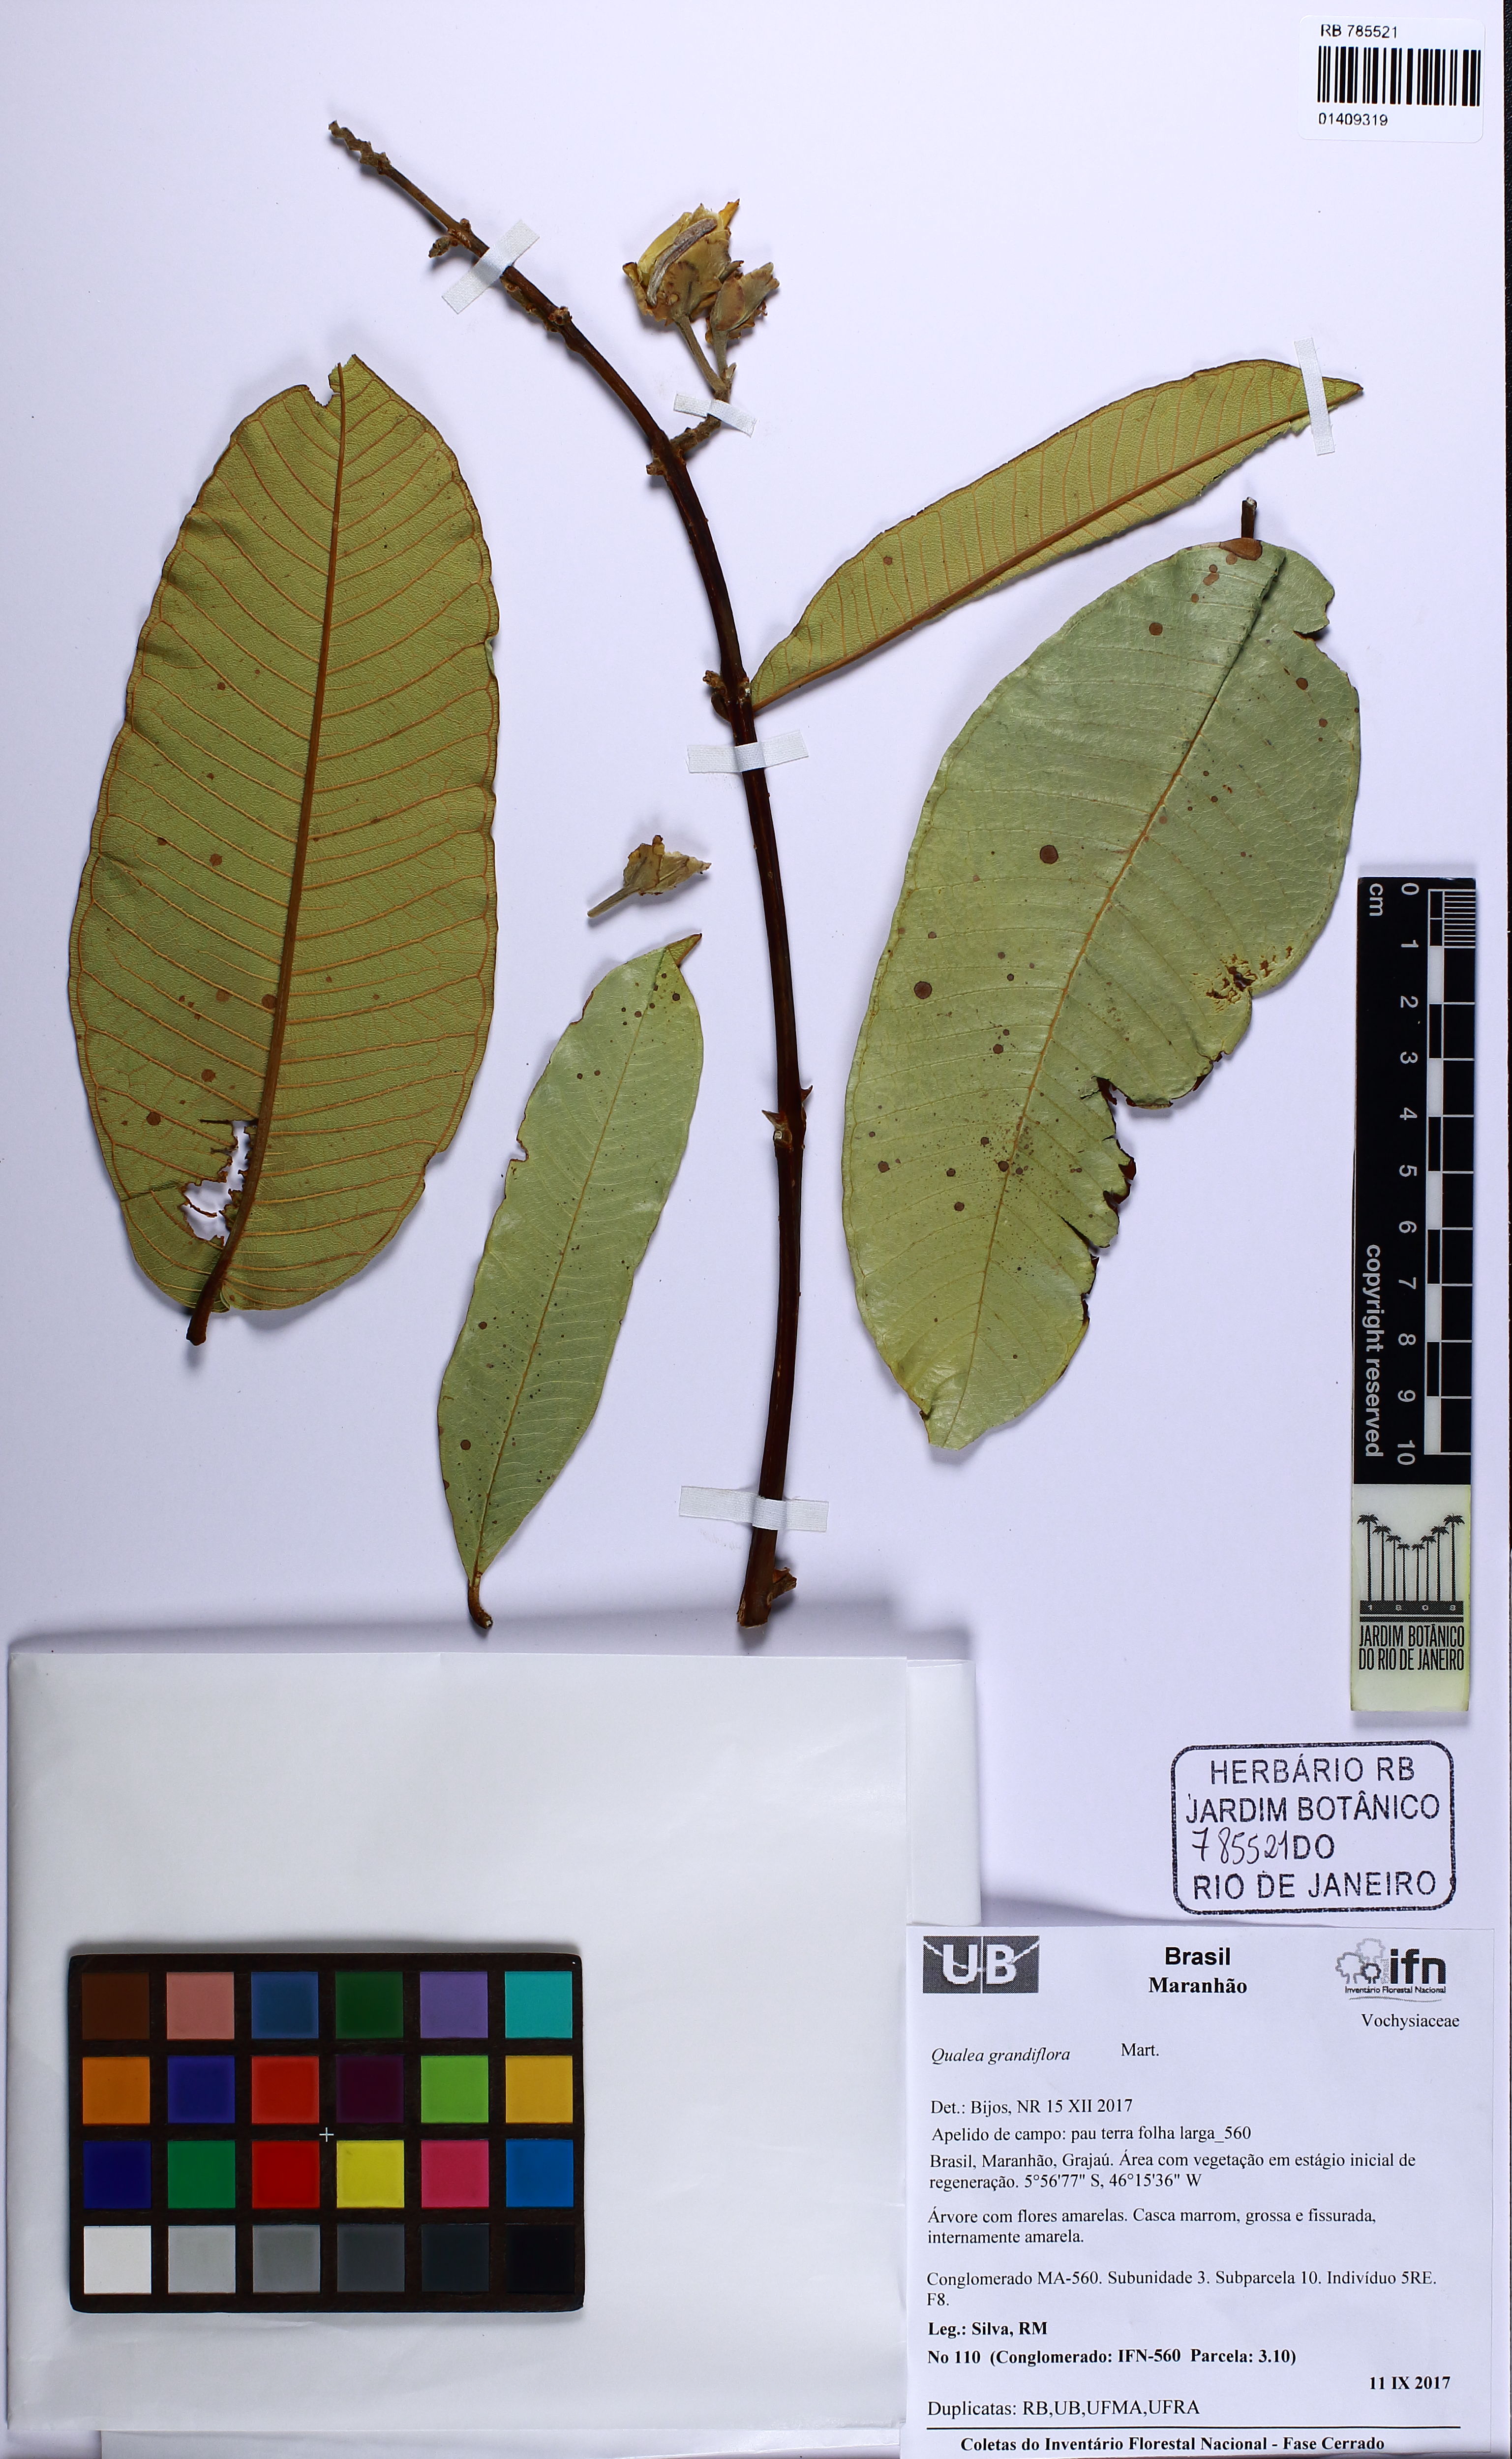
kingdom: Plantae
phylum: Tracheophyta
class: Magnoliopsida
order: Myrtales
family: Vochysiaceae
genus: Qualea
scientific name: Qualea grandiflora
